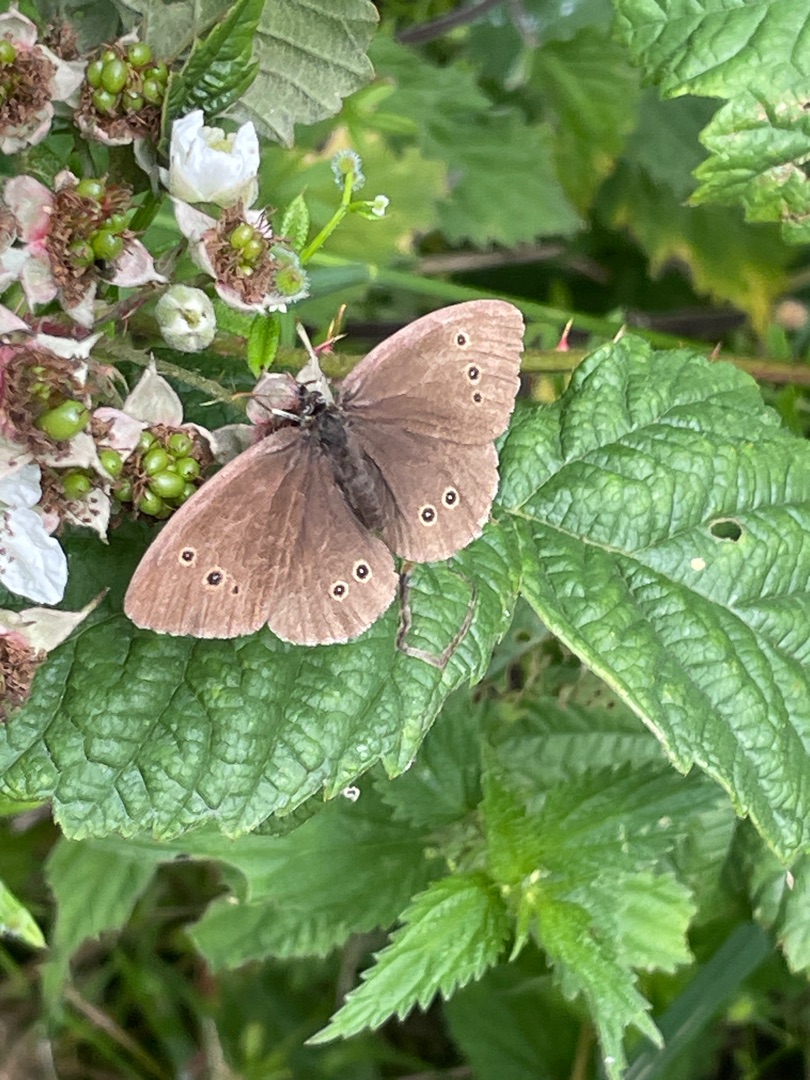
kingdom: Animalia
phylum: Arthropoda
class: Insecta
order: Lepidoptera
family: Nymphalidae
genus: Aphantopus
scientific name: Aphantopus hyperantus
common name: Engrandøje
